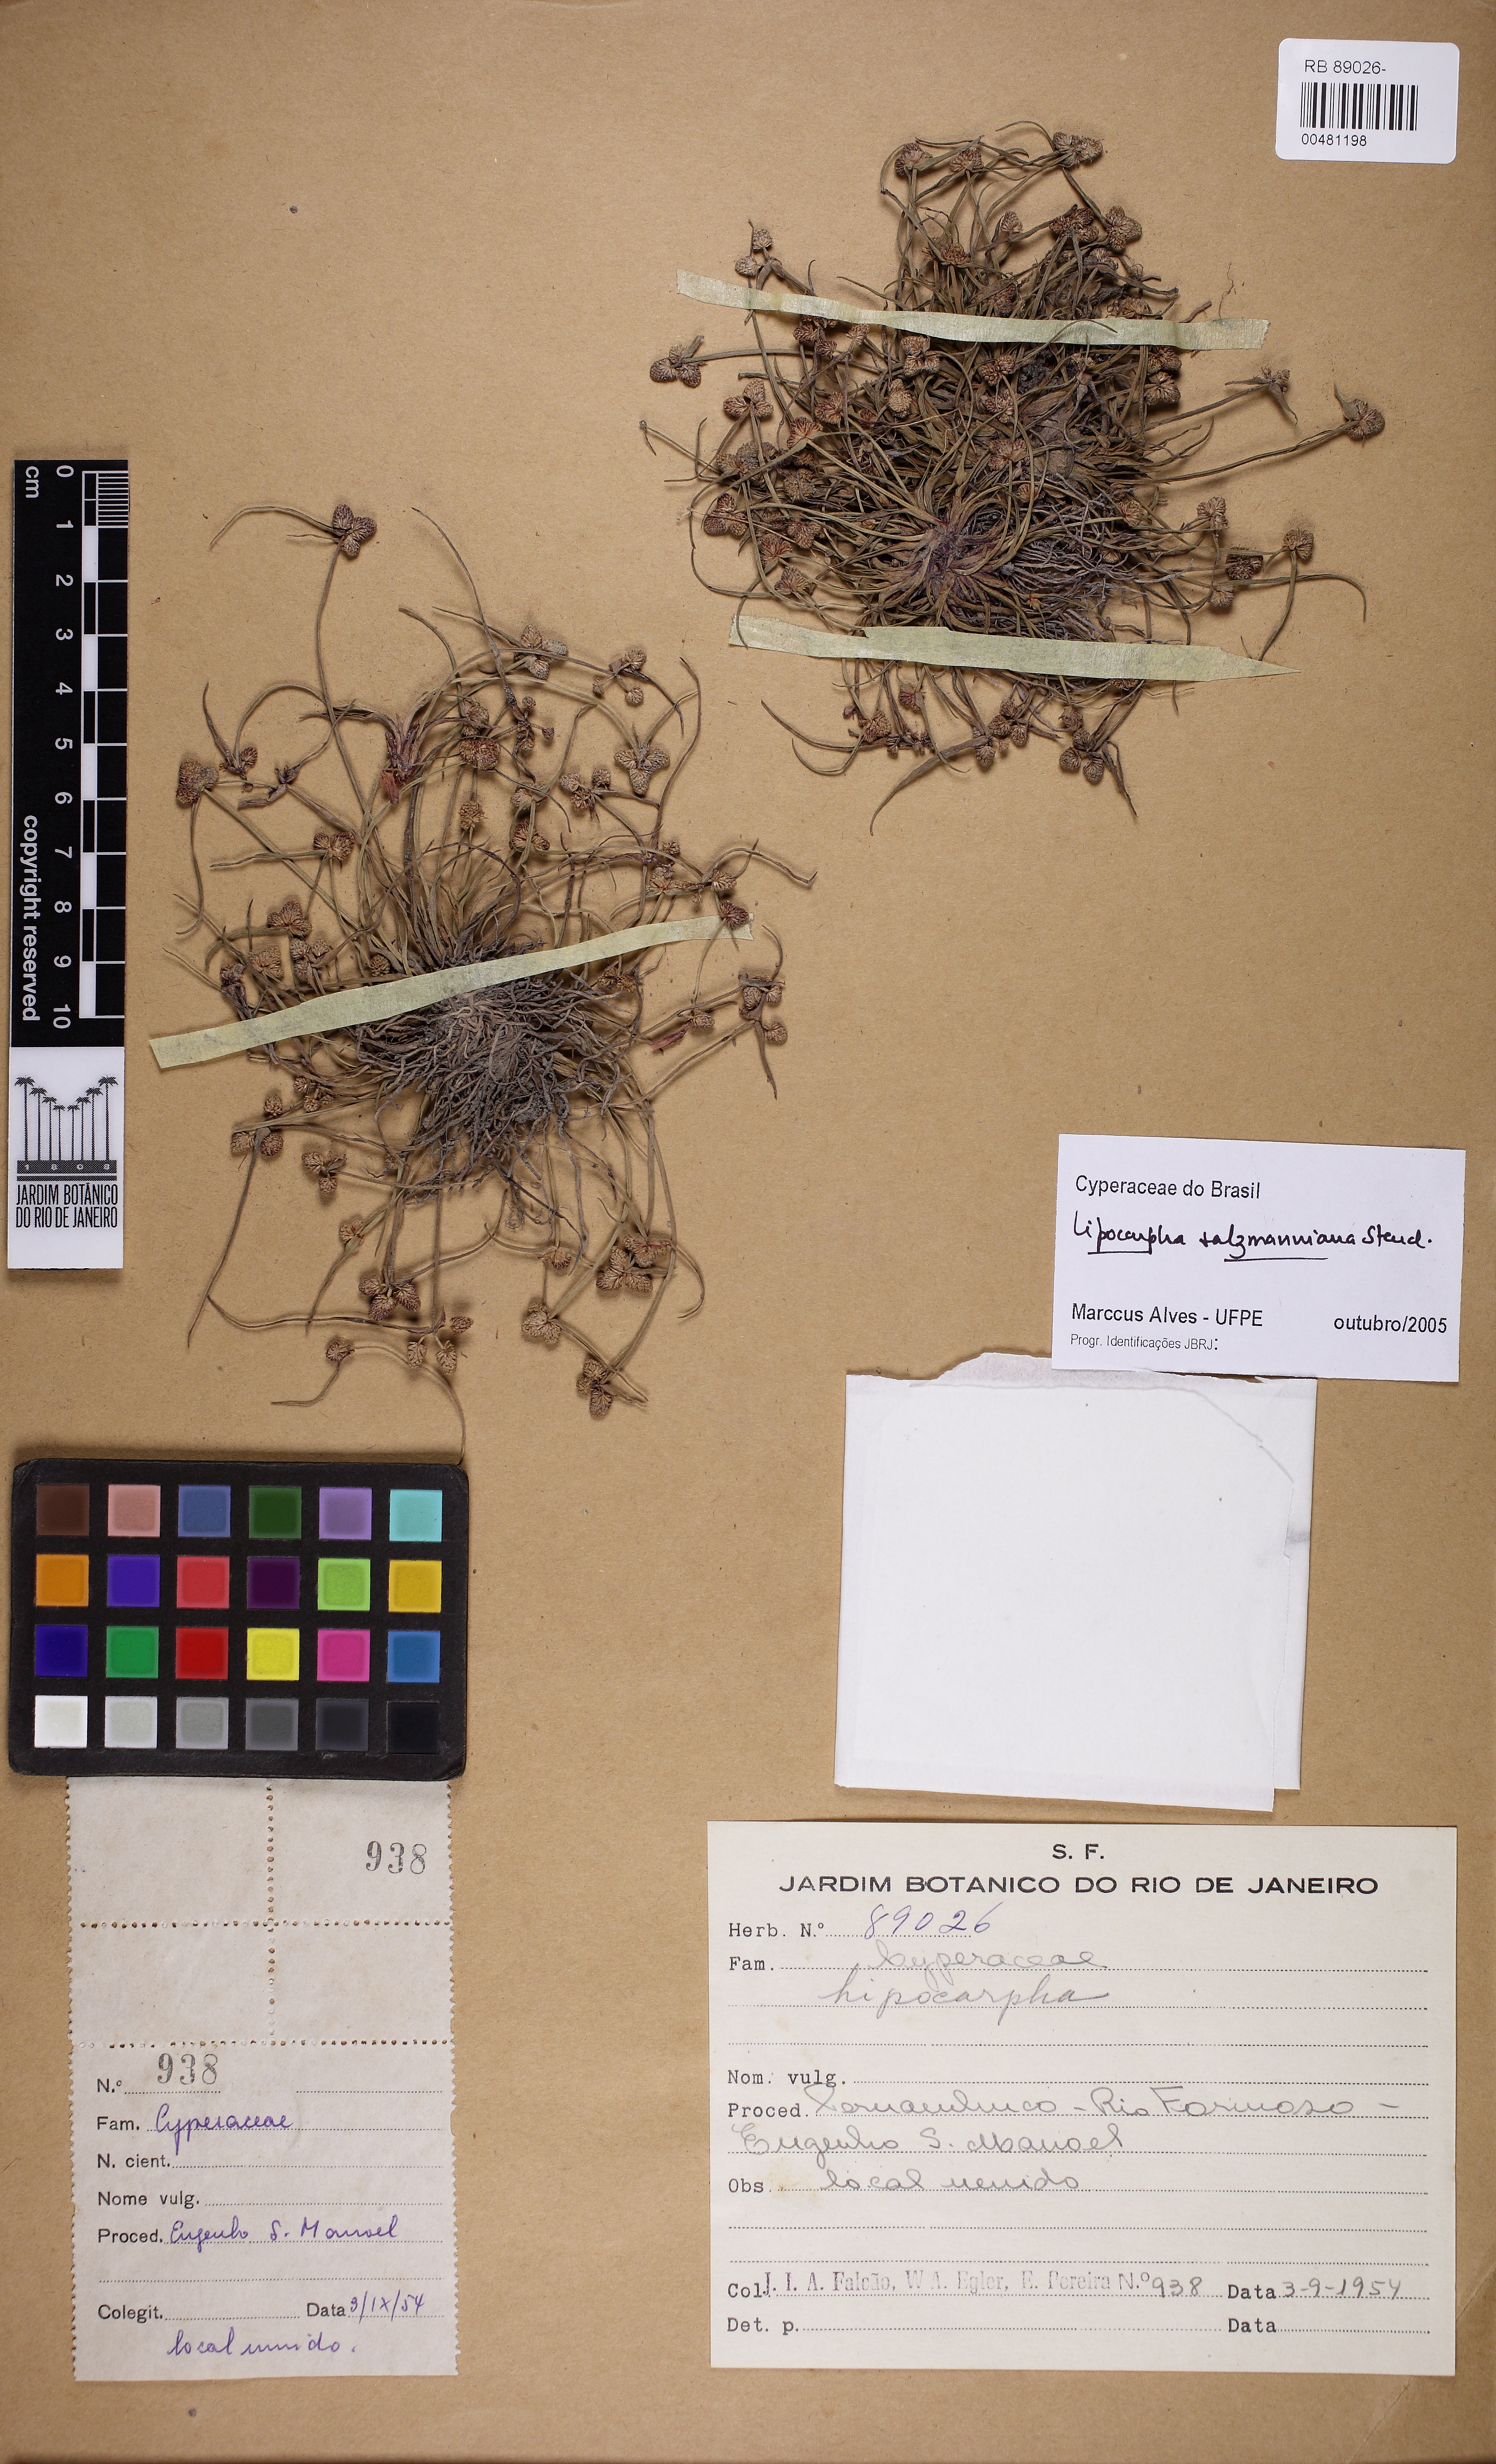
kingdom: Plantae
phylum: Tracheophyta
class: Liliopsida
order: Poales
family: Cyperaceae
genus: Cyperus
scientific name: Cyperus sellowianus
